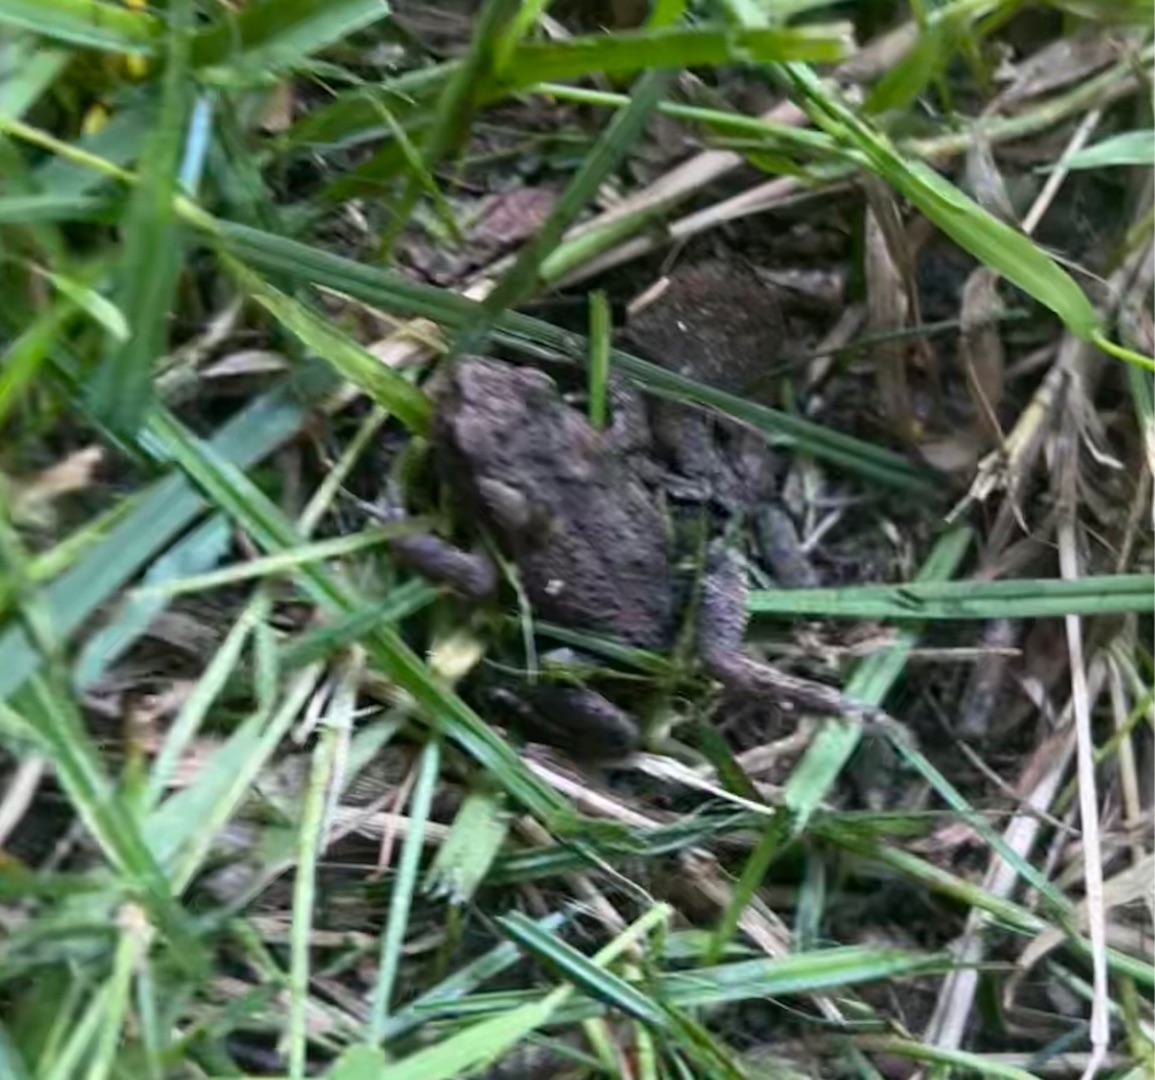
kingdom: Animalia
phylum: Chordata
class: Amphibia
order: Anura
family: Bufonidae
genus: Bufo
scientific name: Bufo bufo
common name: Skrubtudse
